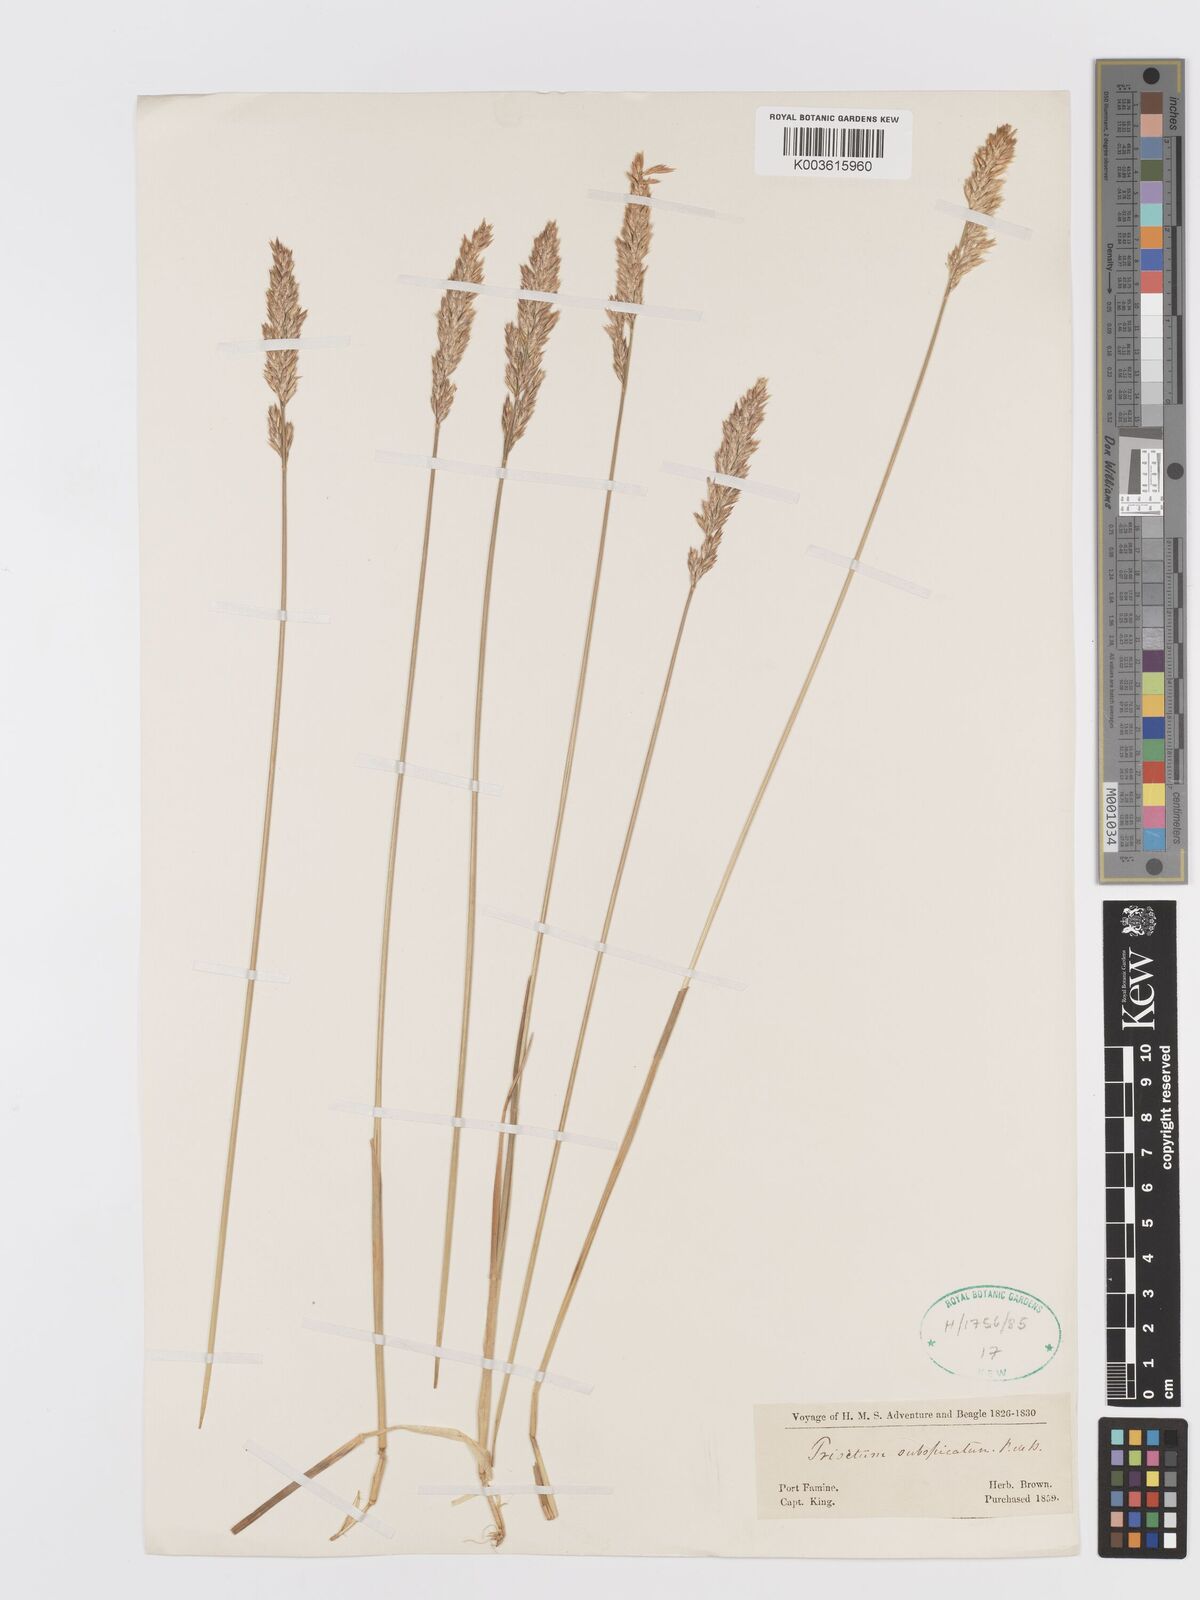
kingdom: Plantae
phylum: Tracheophyta
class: Liliopsida
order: Poales
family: Poaceae
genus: Koeleria
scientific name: Koeleria spicata
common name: Mountain trisetum
